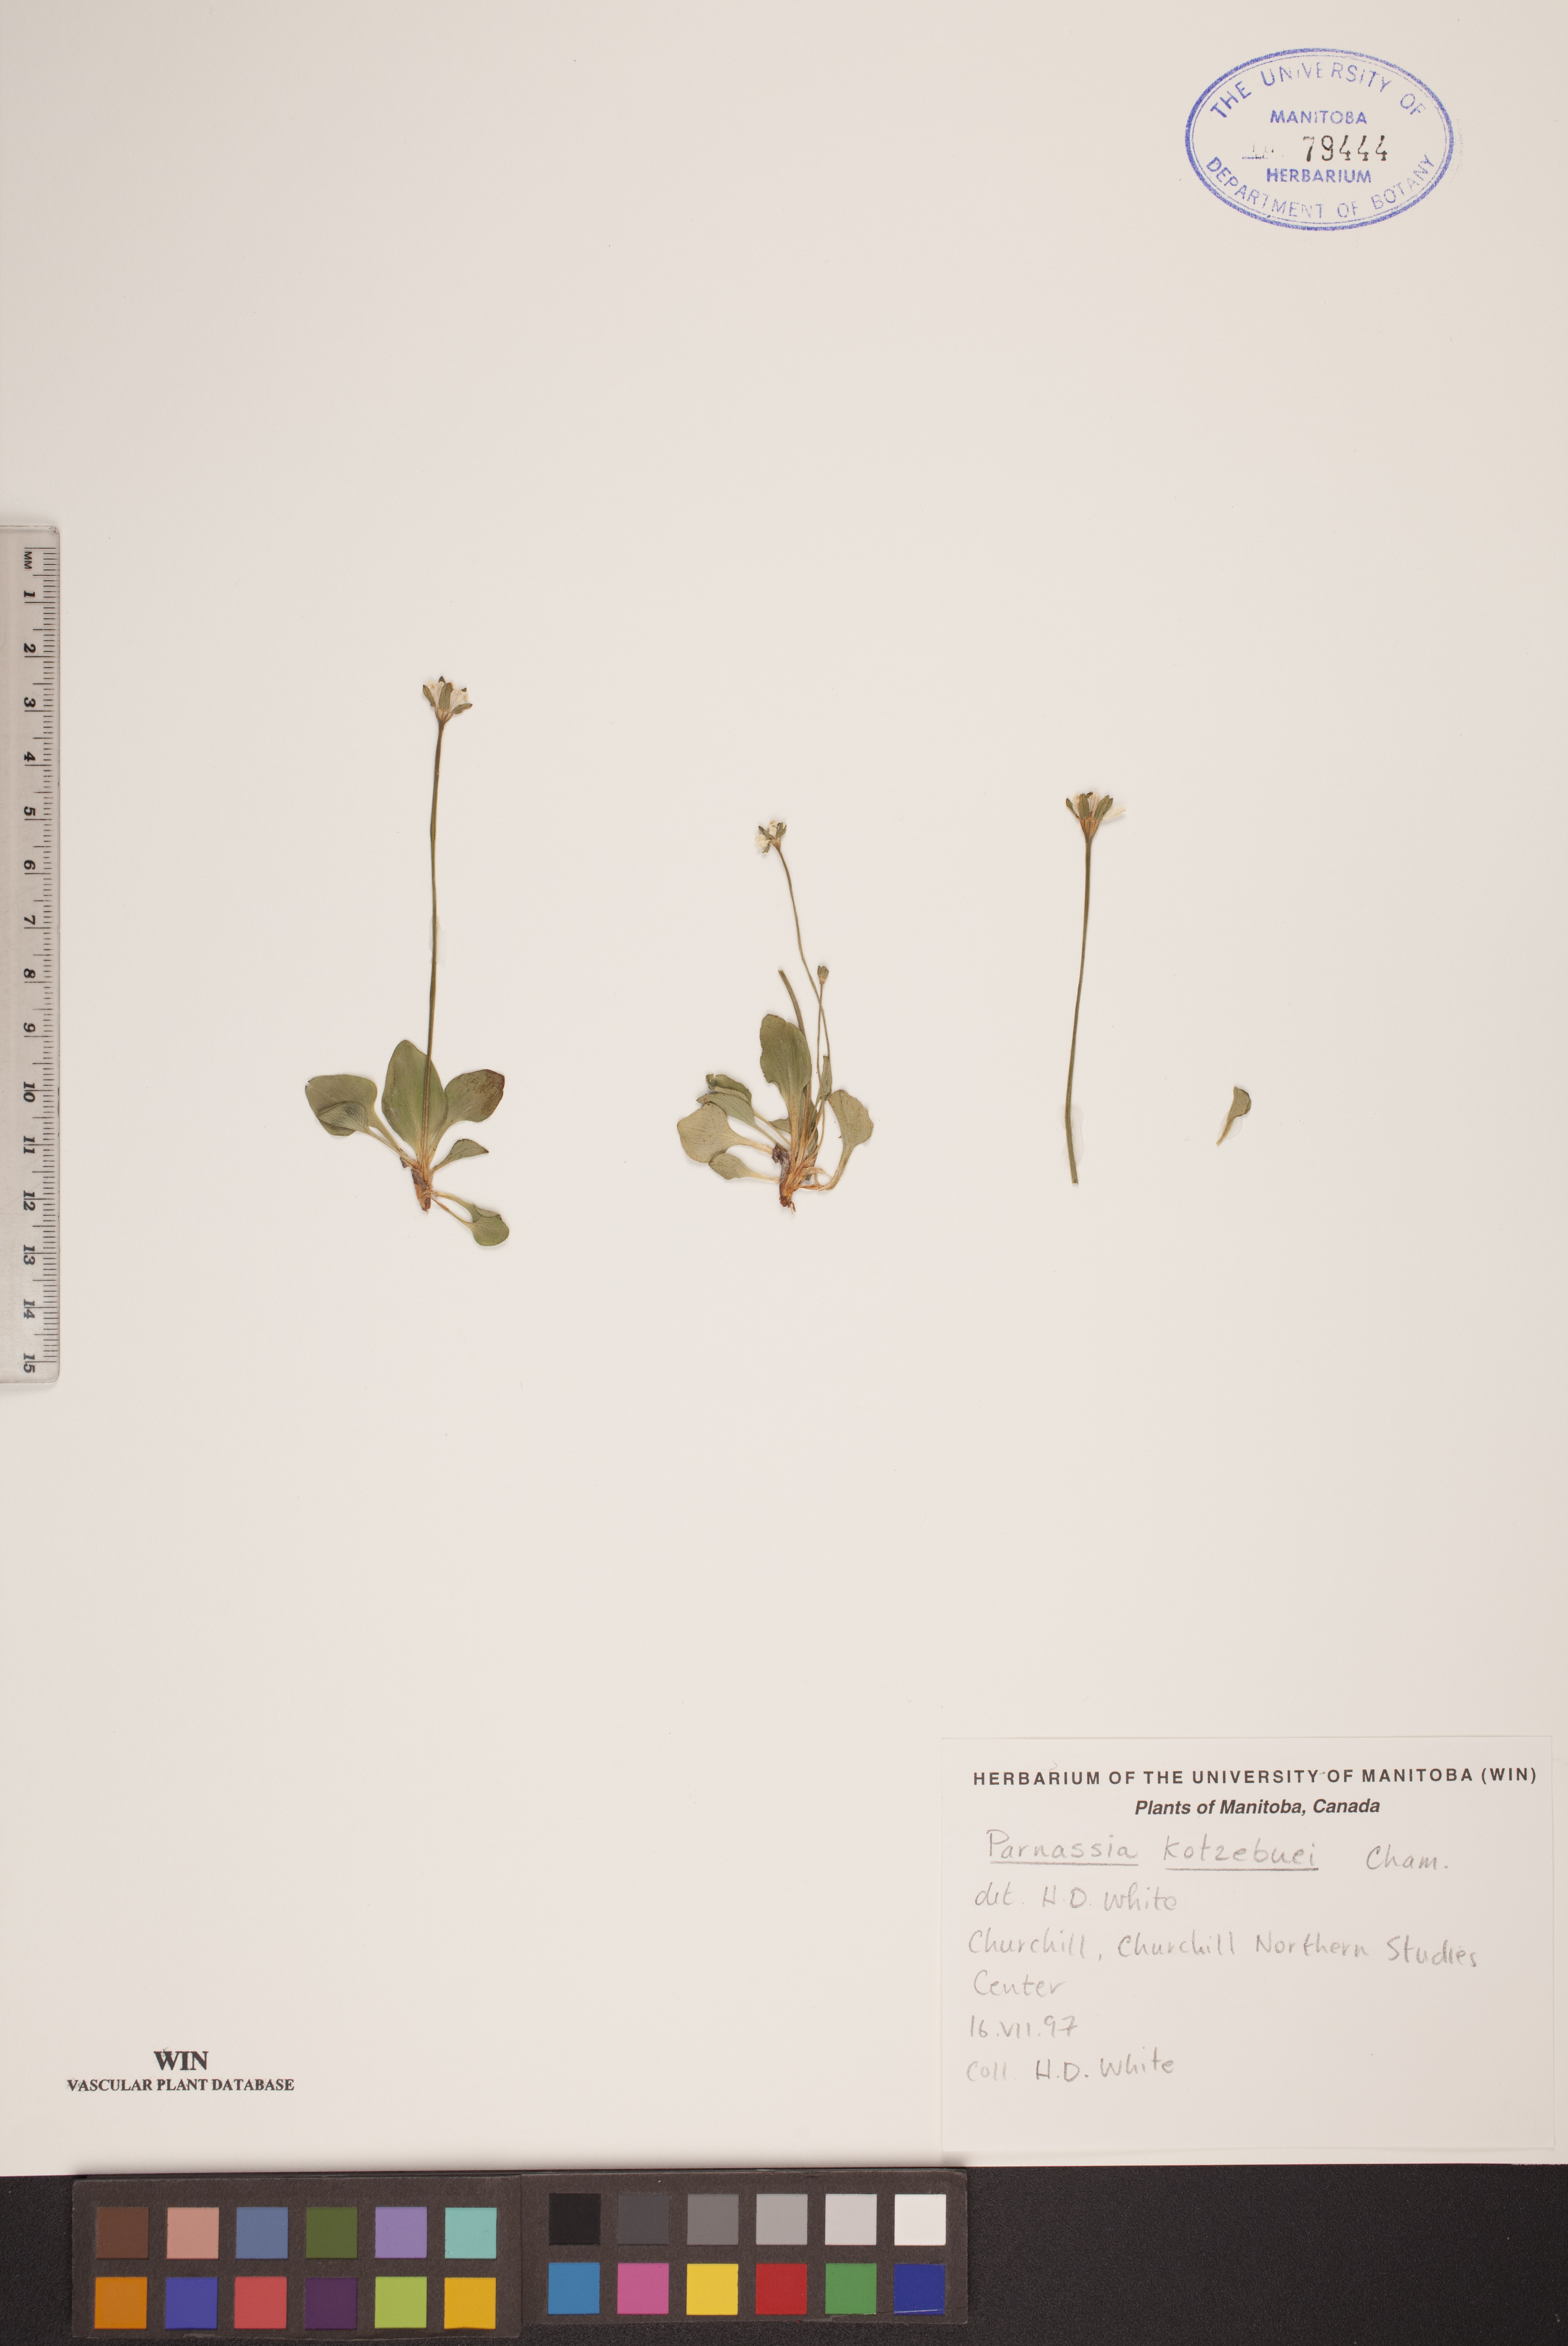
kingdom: Plantae
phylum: Tracheophyta
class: Magnoliopsida
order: Celastrales
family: Parnassiaceae
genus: Parnassia
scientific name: Parnassia kotzebuei
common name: Kotzebue's grass-of-parnassus
